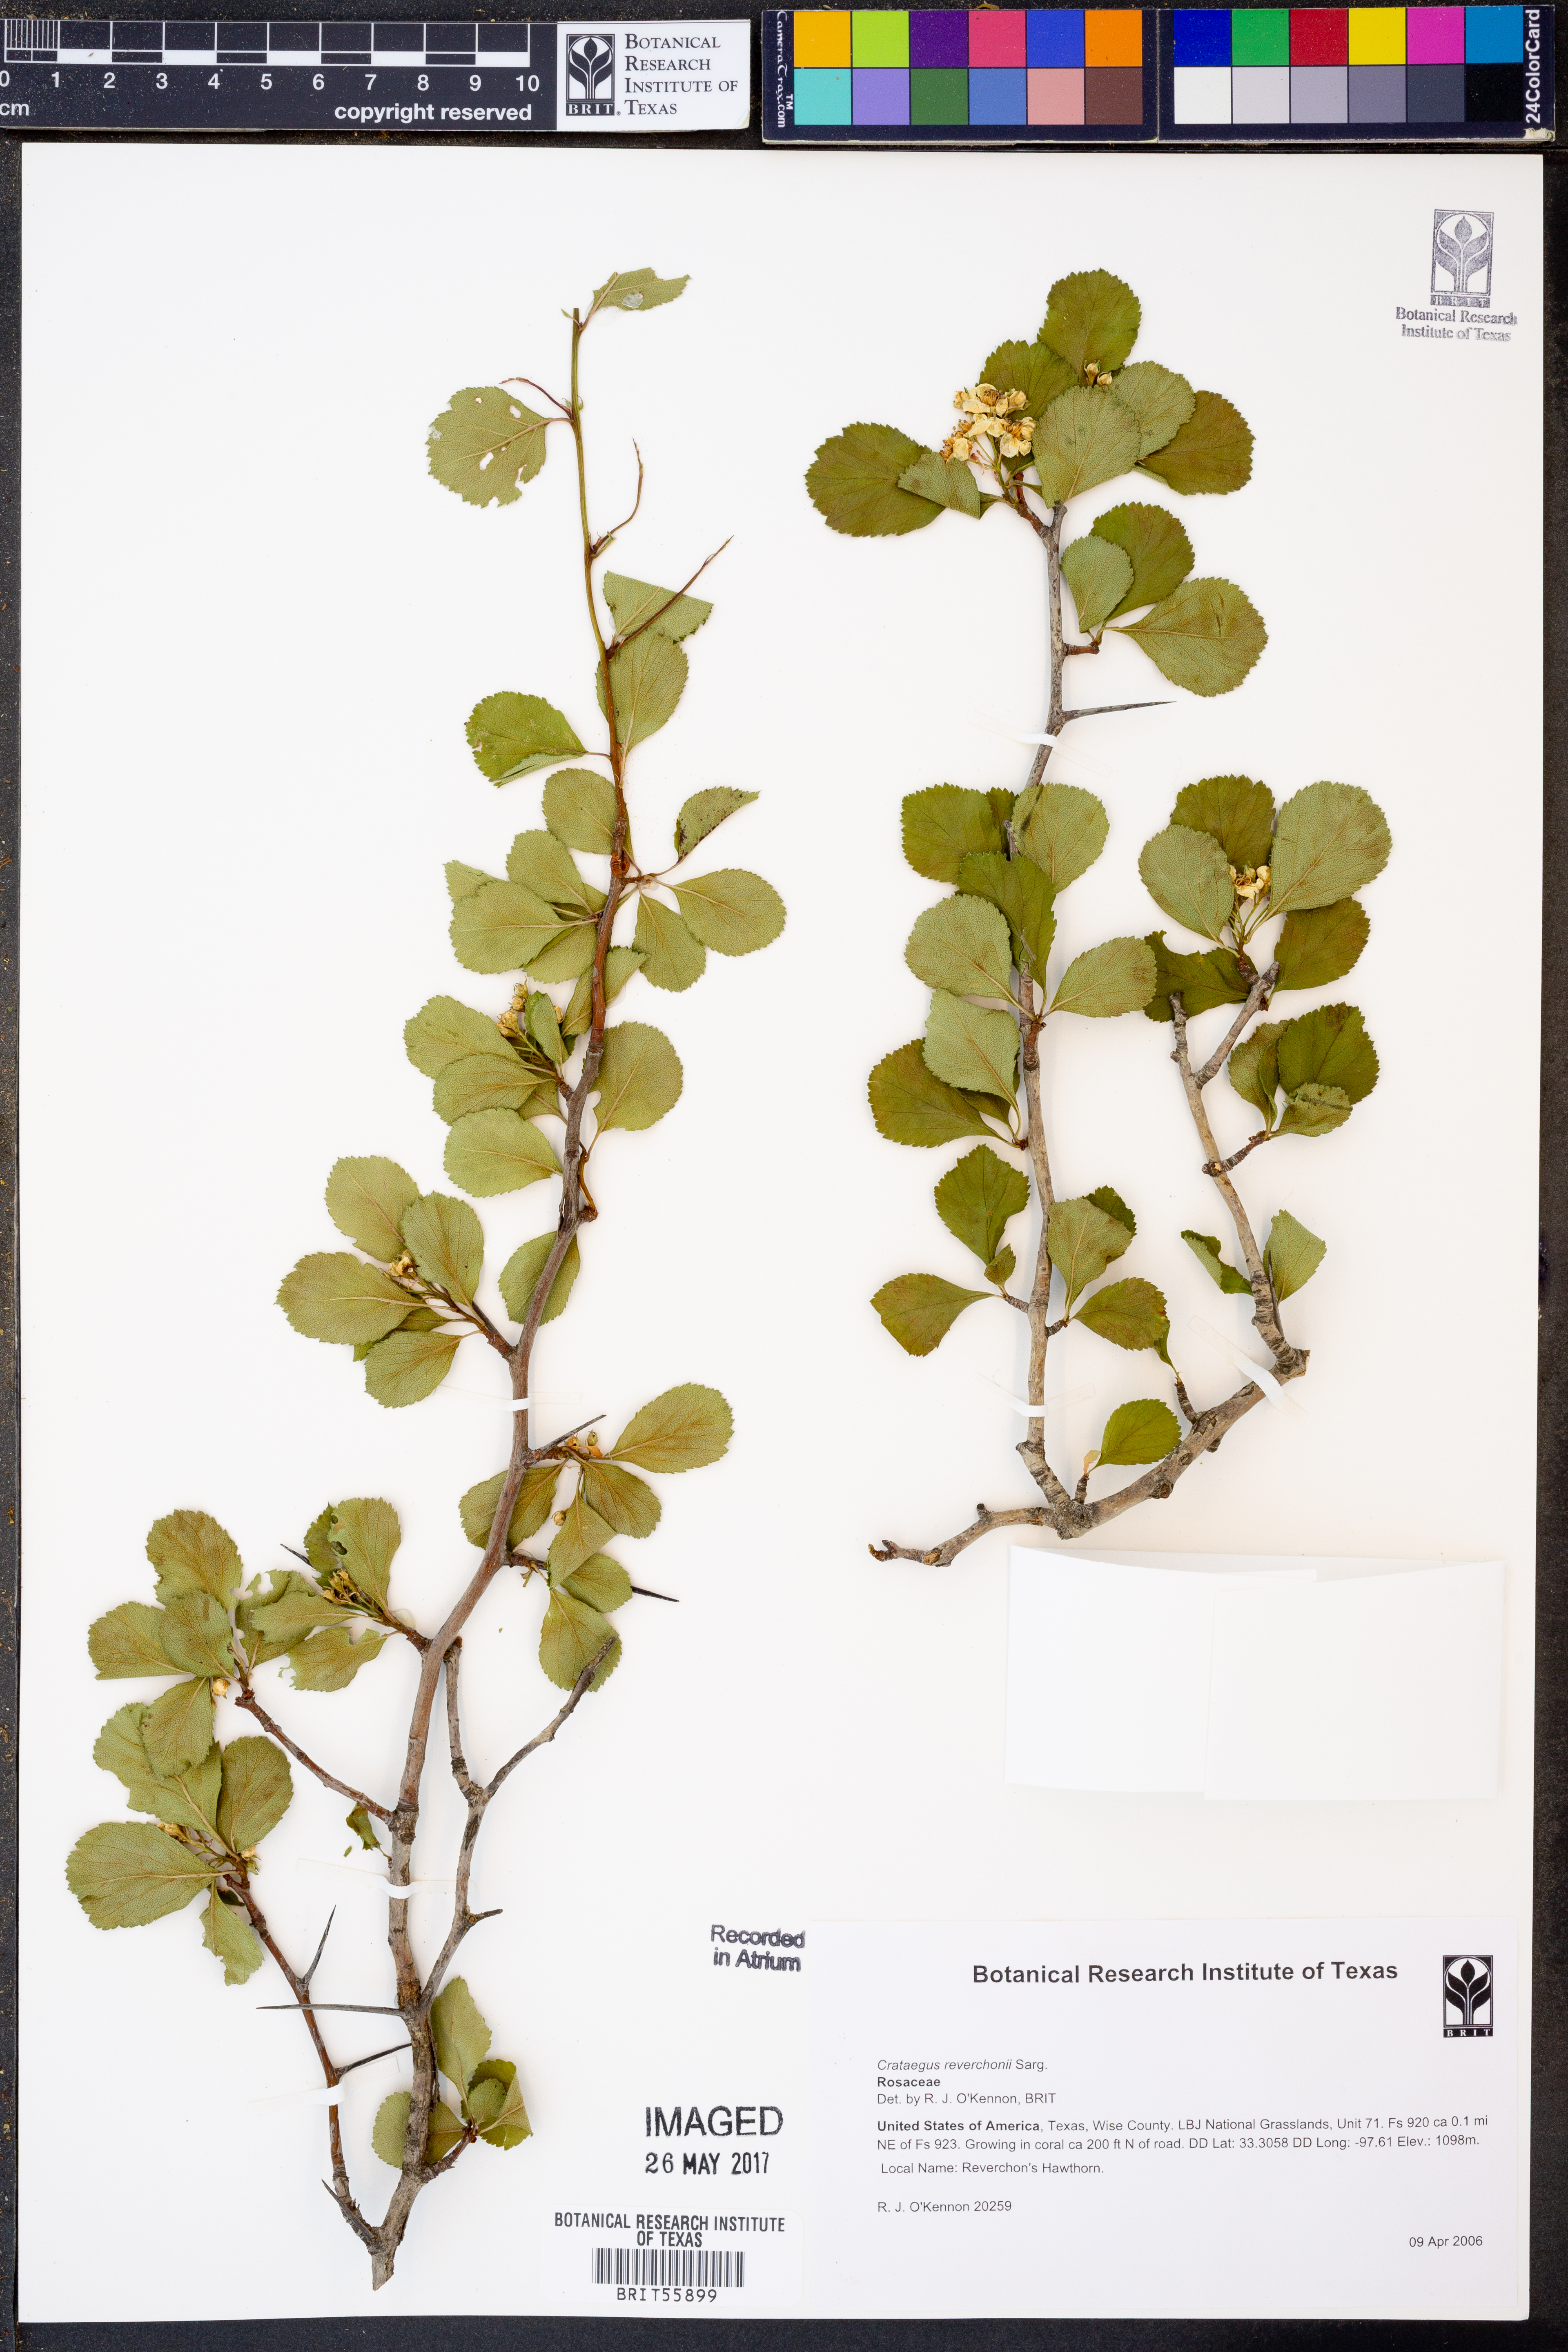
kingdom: Plantae
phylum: Tracheophyta
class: Magnoliopsida
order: Rosales
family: Rosaceae
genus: Crataegus
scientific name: Crataegus reverchonii
